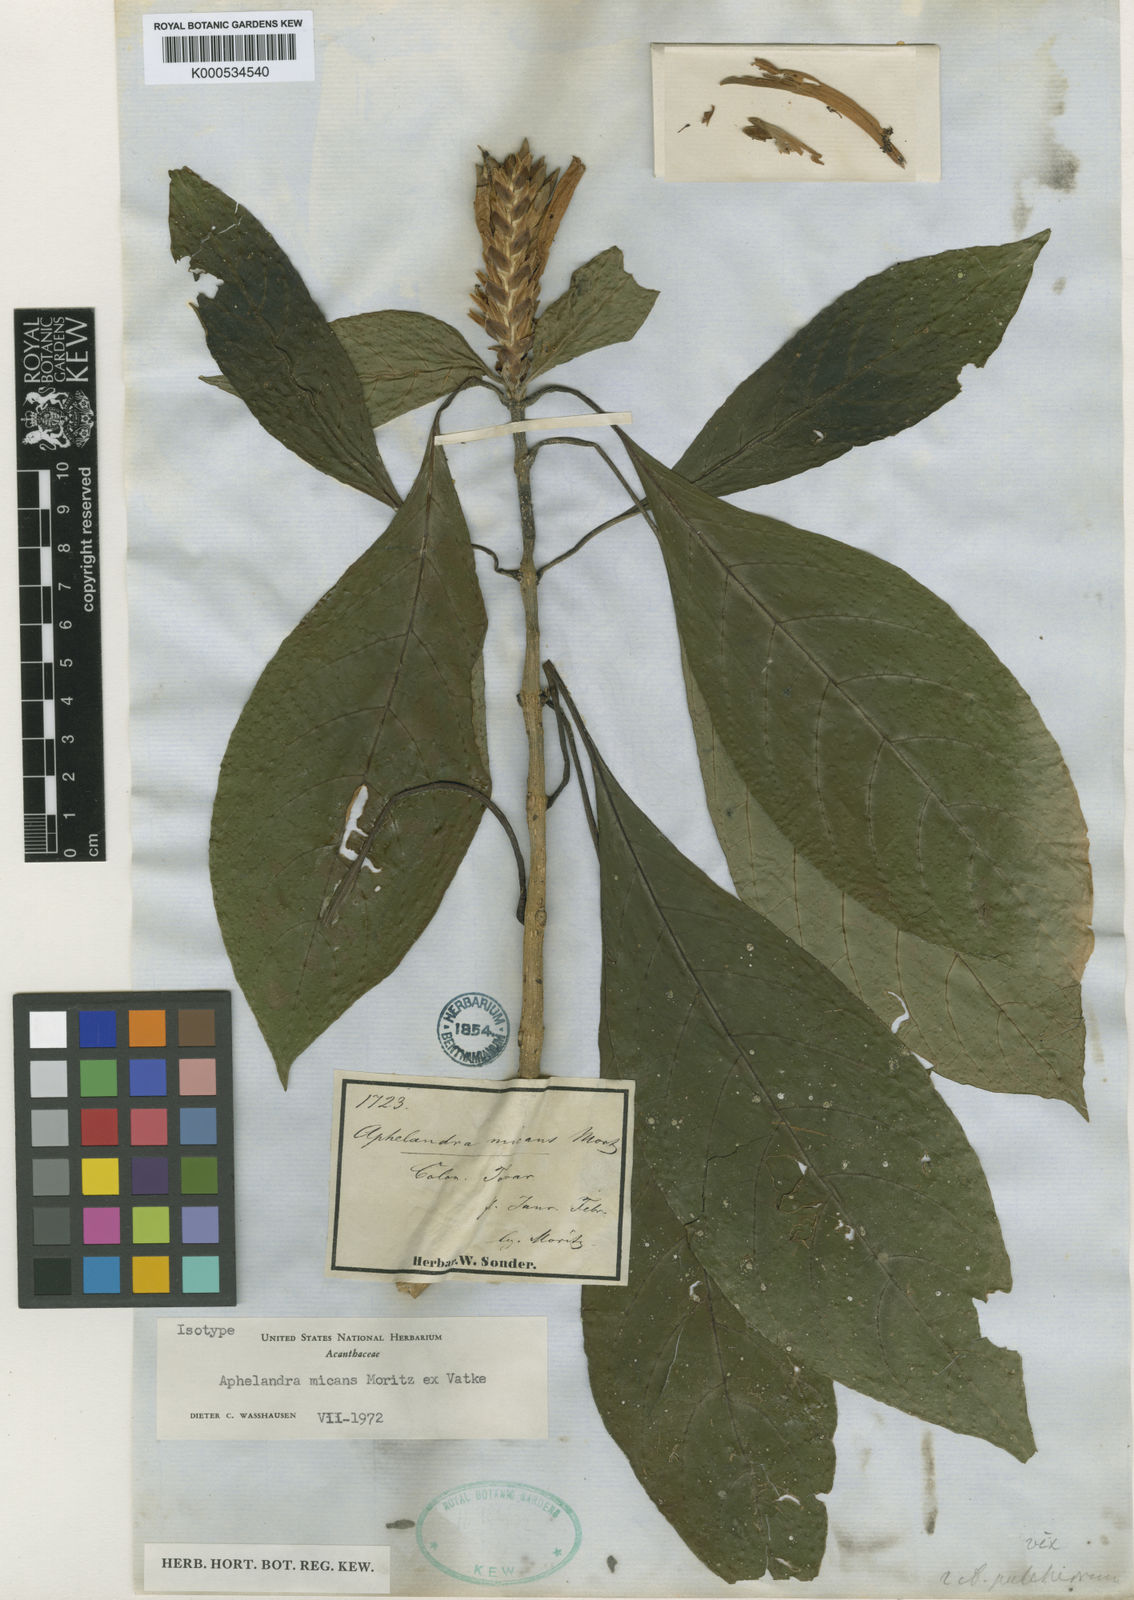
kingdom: Plantae
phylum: Tracheophyta
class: Magnoliopsida
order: Lamiales
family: Acanthaceae
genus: Aphelandra
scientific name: Aphelandra micans
